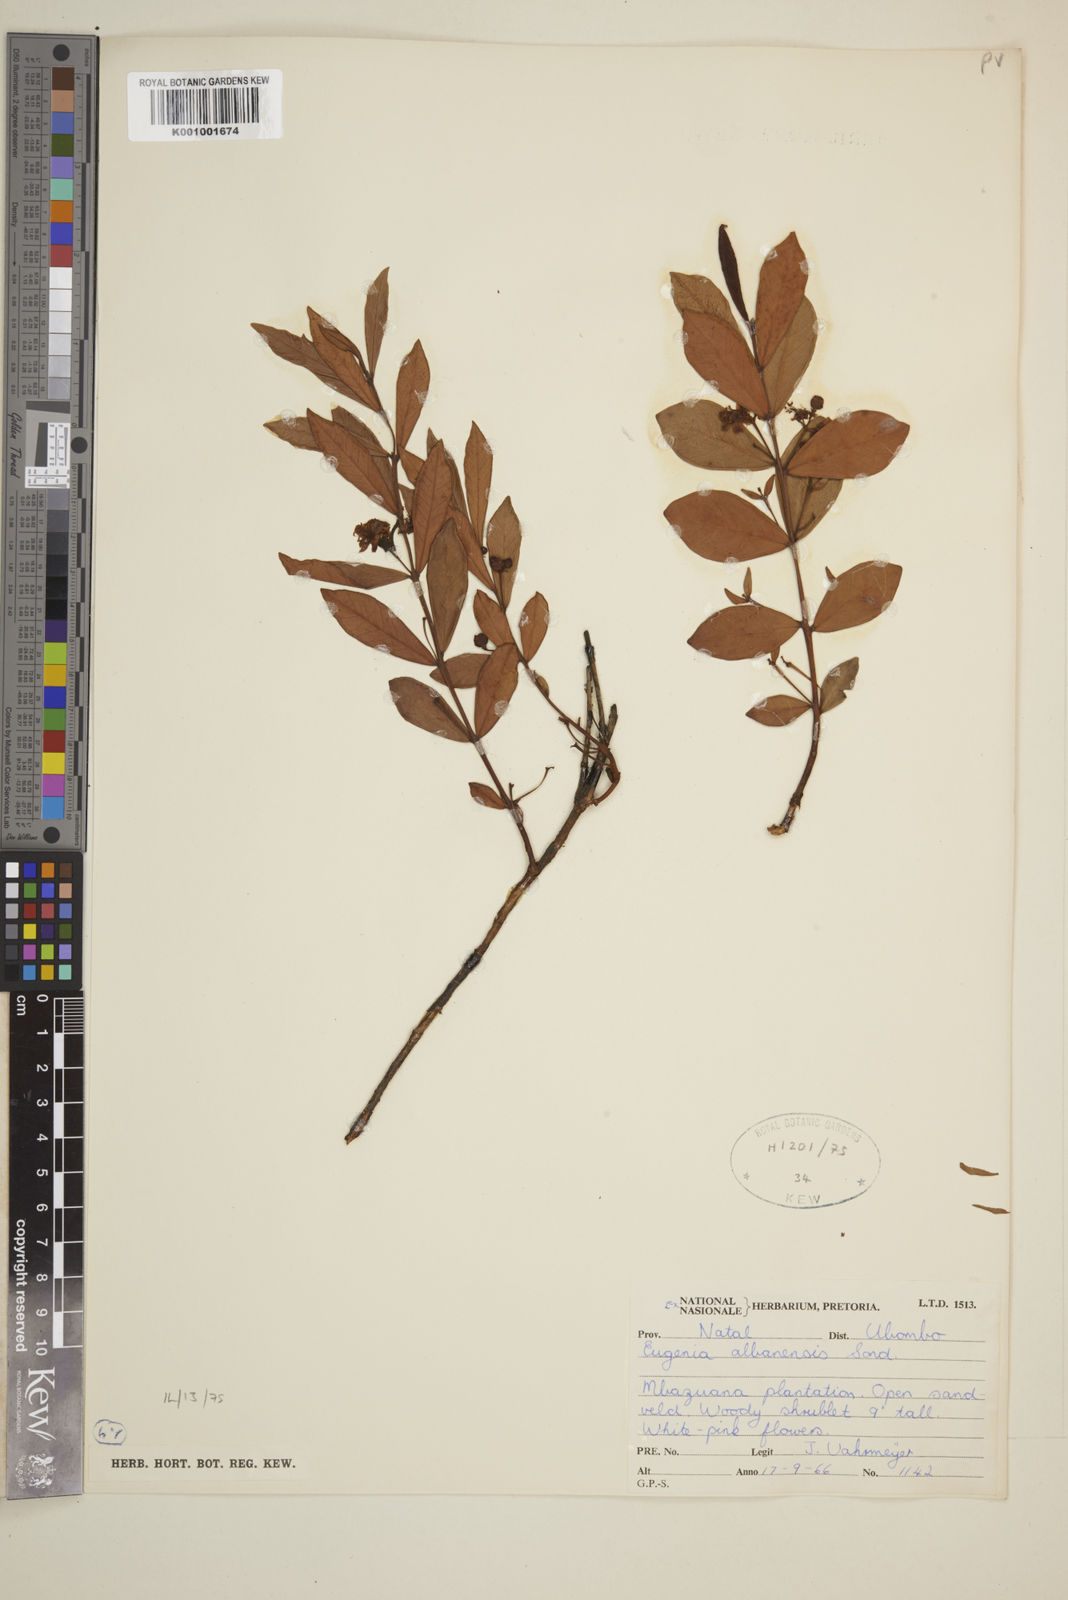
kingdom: Plantae
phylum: Tracheophyta
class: Magnoliopsida
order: Myrtales
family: Myrtaceae
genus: Eugenia
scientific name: Eugenia capensis
